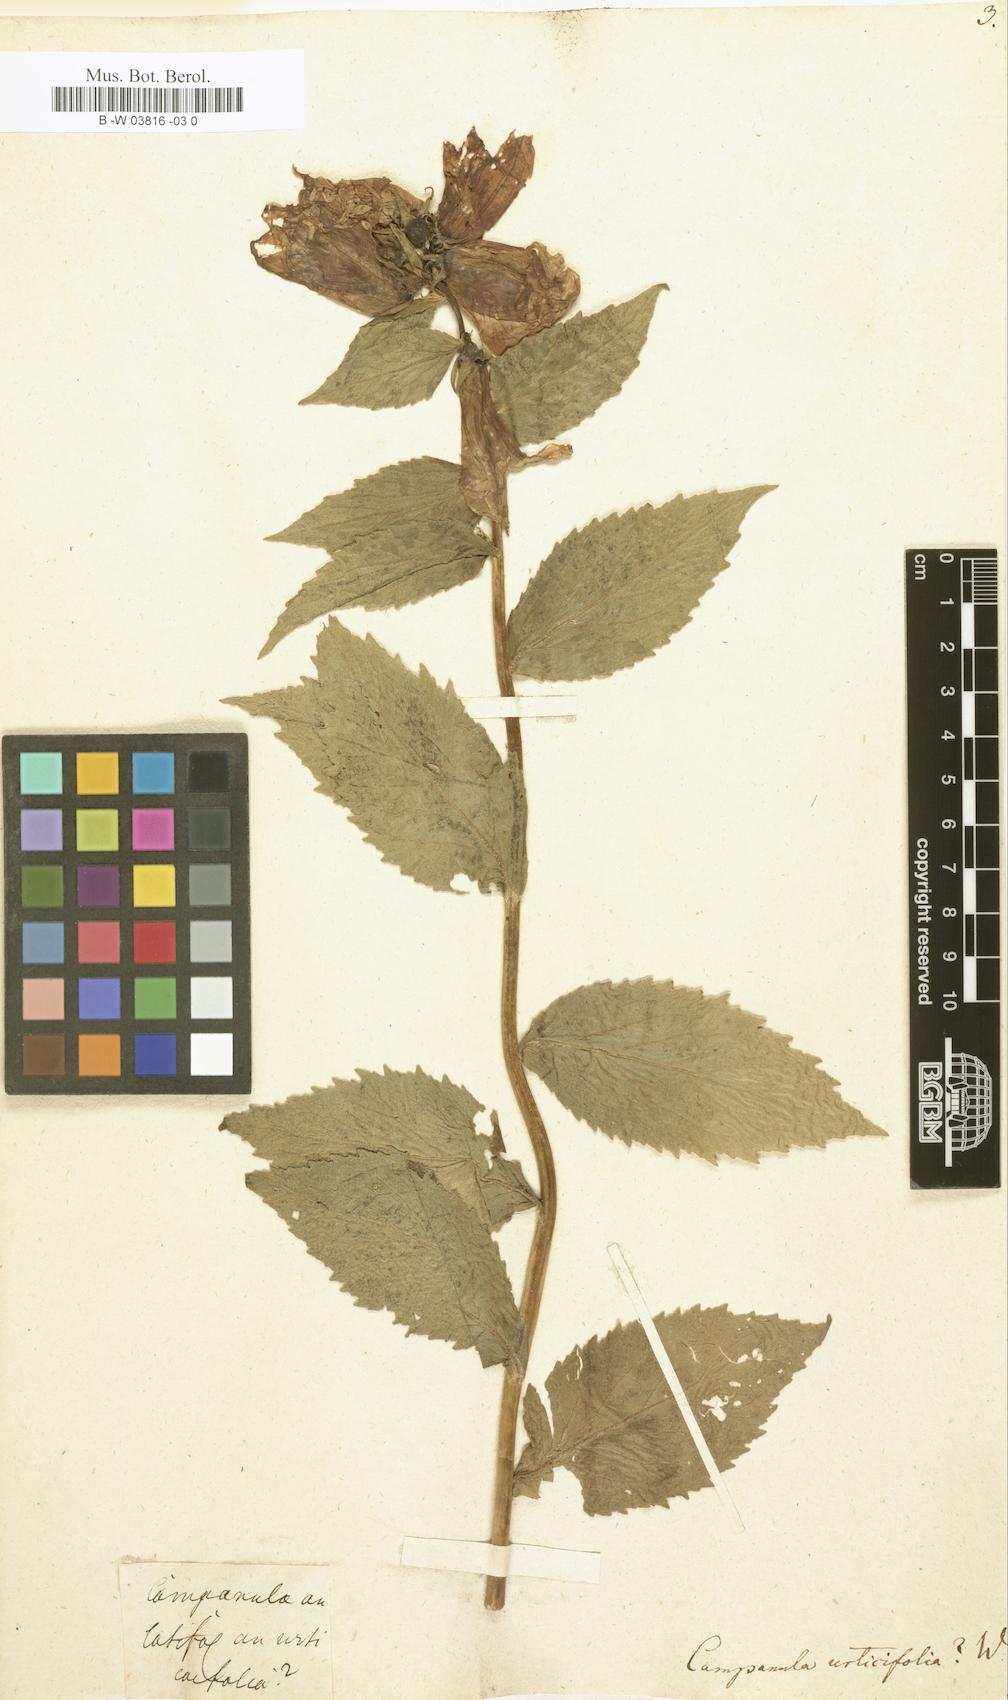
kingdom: Plantae
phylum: Tracheophyta
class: Magnoliopsida
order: Asterales
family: Campanulaceae
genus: Campanula
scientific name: Campanula urticifolia
